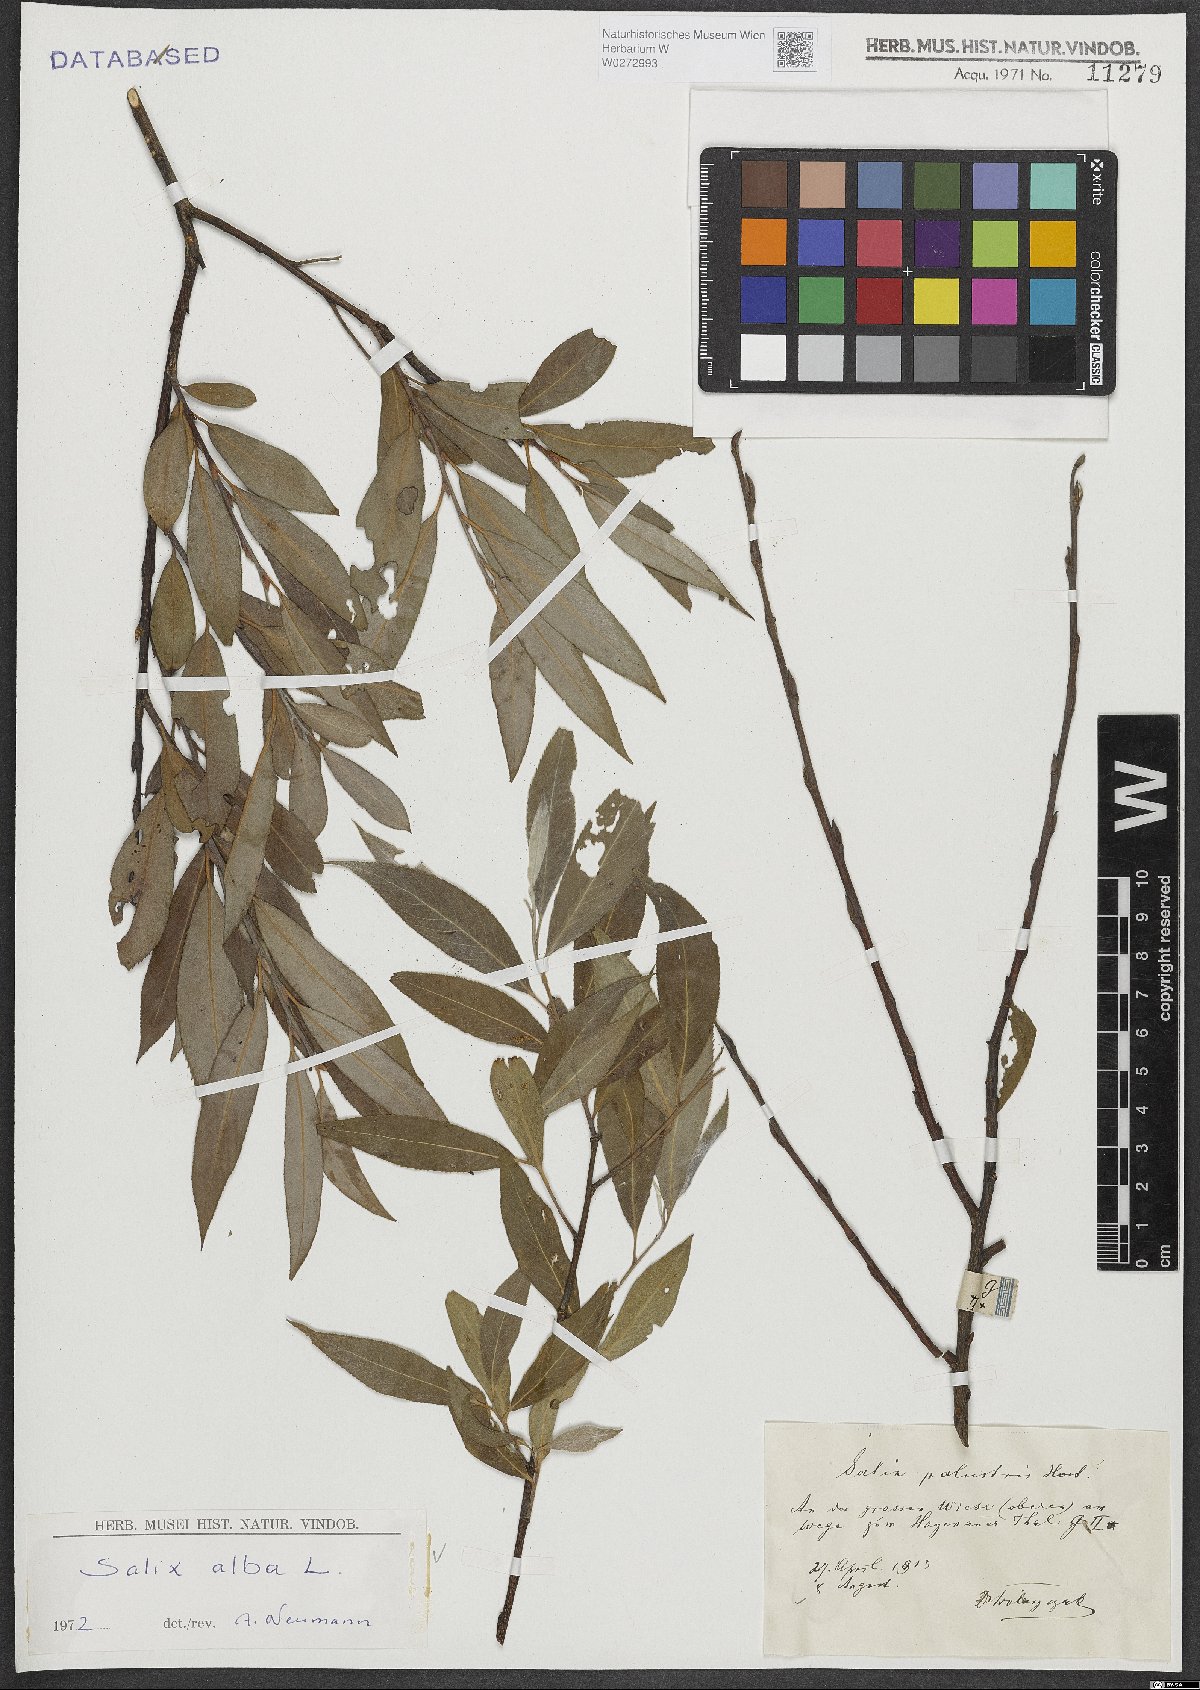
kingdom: Plantae
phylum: Tracheophyta
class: Magnoliopsida
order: Malpighiales
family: Salicaceae
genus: Salix
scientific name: Salix alba
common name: White willow
